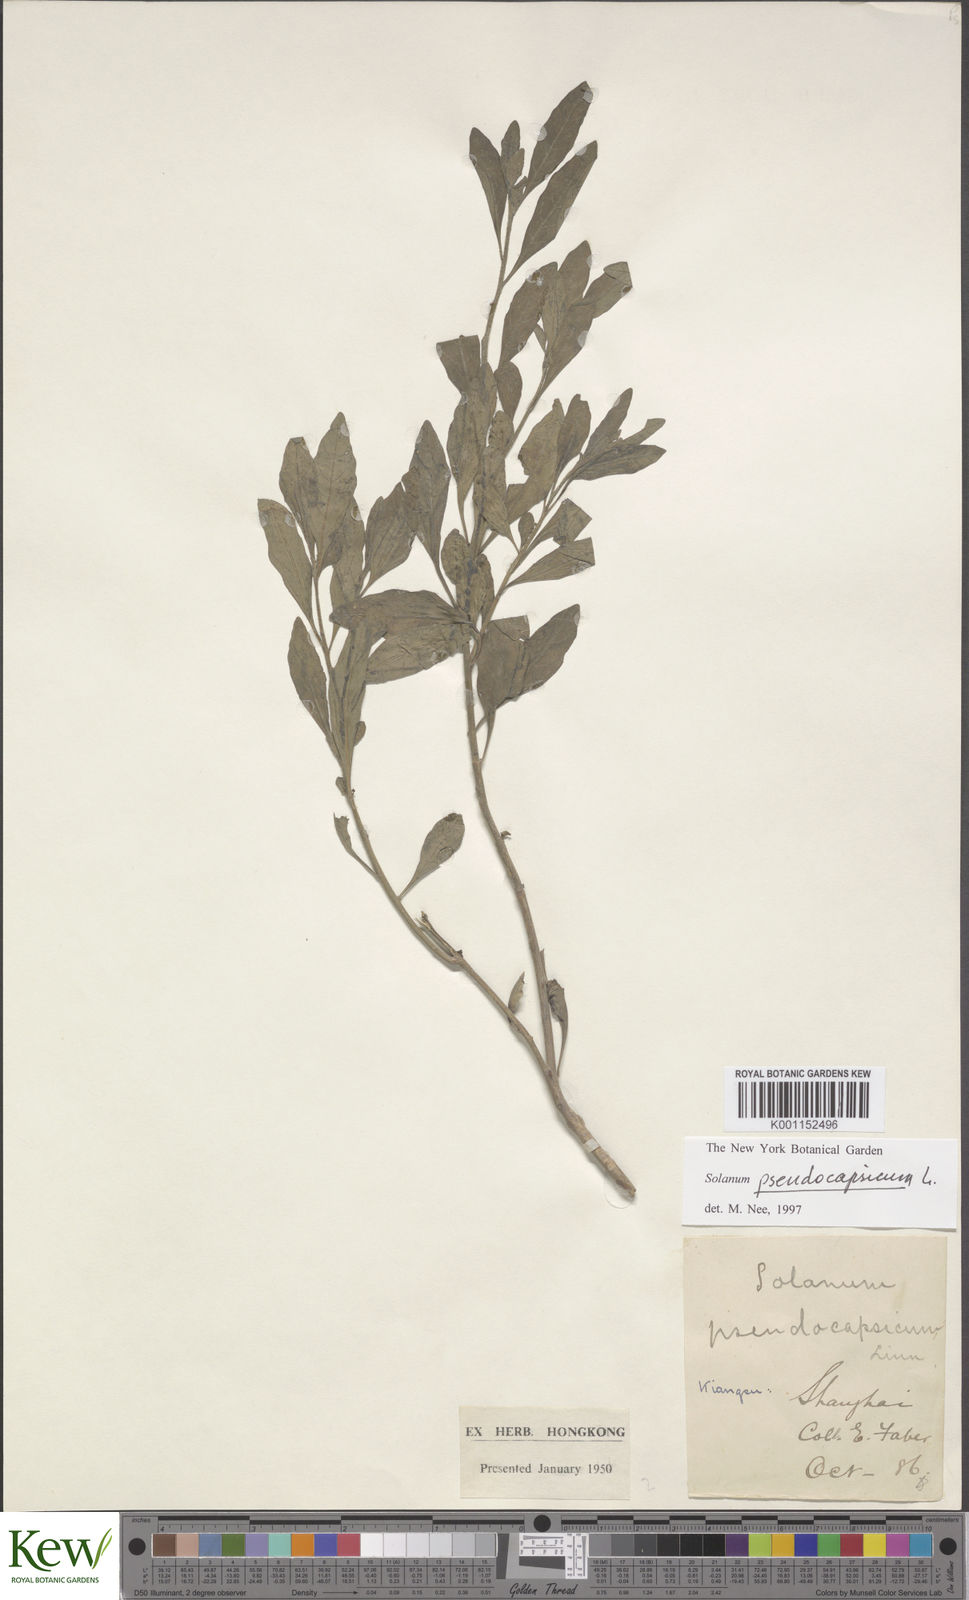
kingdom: Plantae
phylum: Tracheophyta
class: Magnoliopsida
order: Solanales
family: Solanaceae
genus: Solanum
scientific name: Solanum pseudocapsicum
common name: Jerusalem cherry
